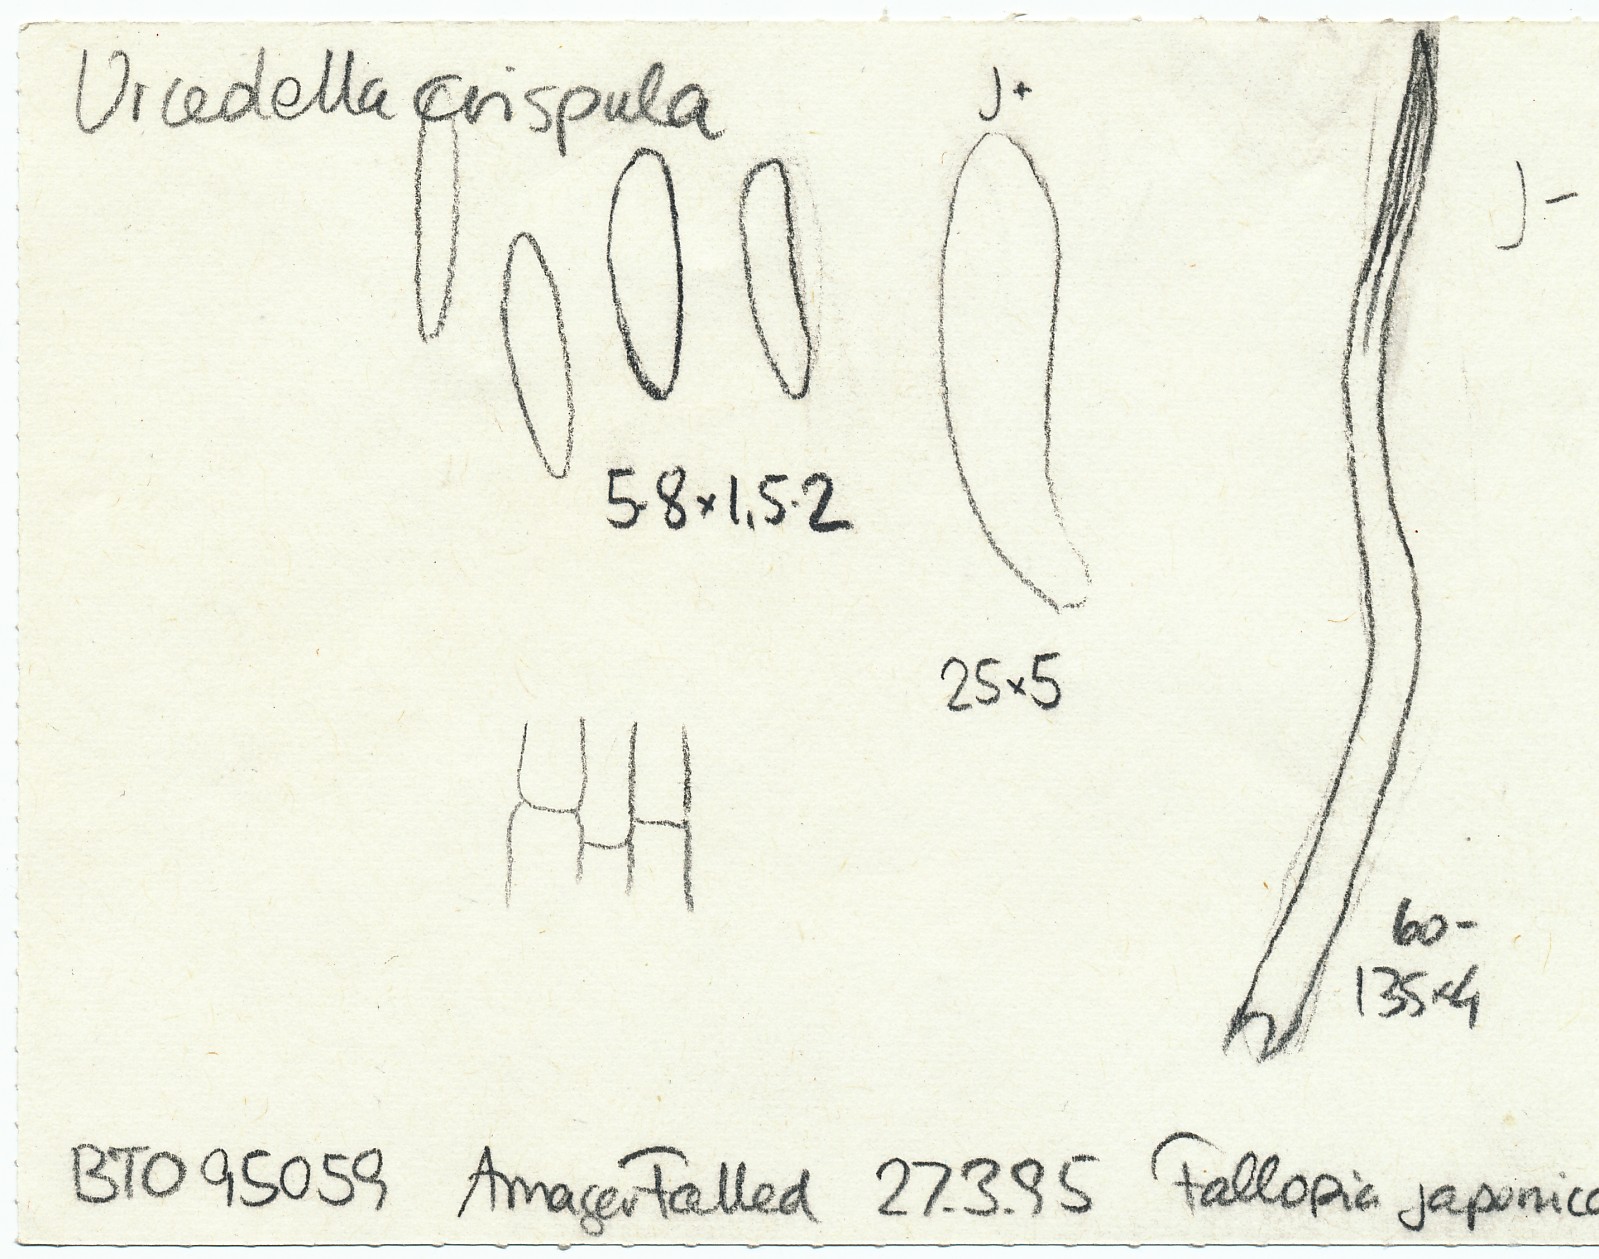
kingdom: Fungi
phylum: Ascomycota
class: Leotiomycetes
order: Helotiales
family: Hyaloscyphaceae
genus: Urceolella
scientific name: Urceolella crispula
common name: tangenthåret kugleskive
